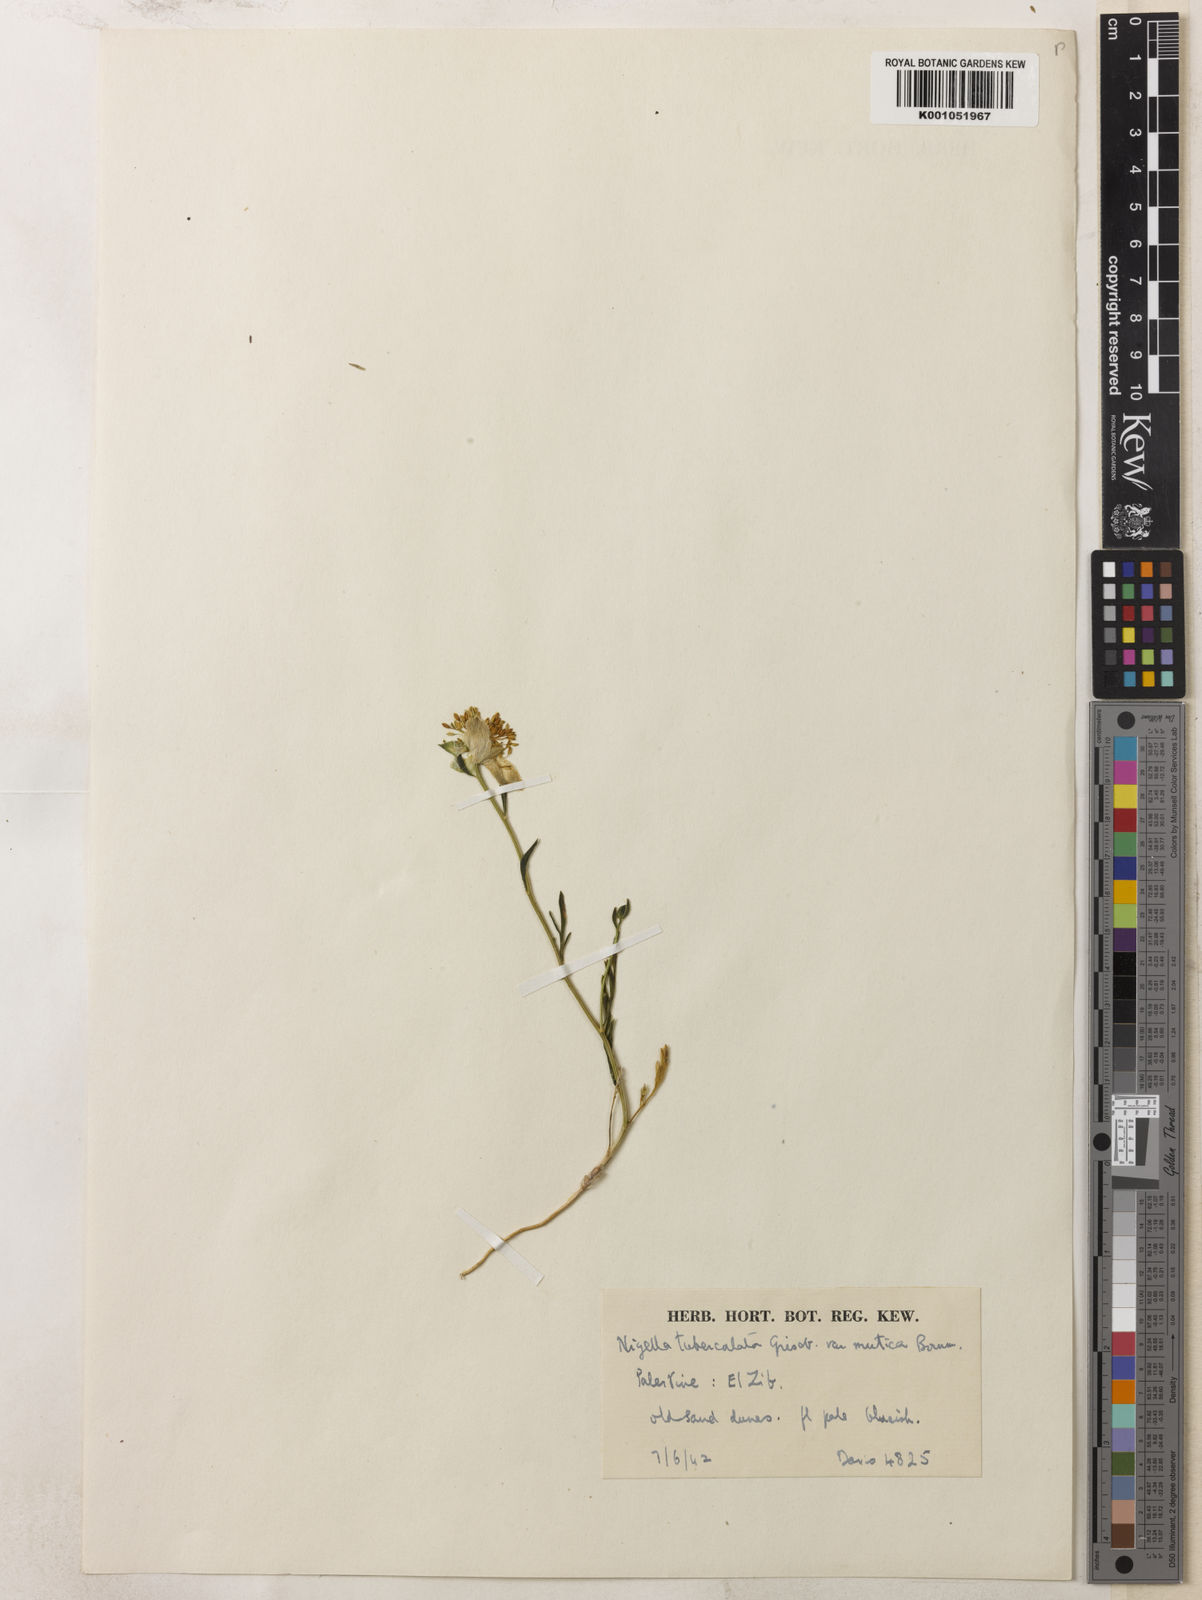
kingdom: Plantae
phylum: Tracheophyta
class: Magnoliopsida
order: Ranunculales
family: Ranunculaceae
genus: Nigella
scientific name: Nigella arvensis
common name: Wild fennel-flower
